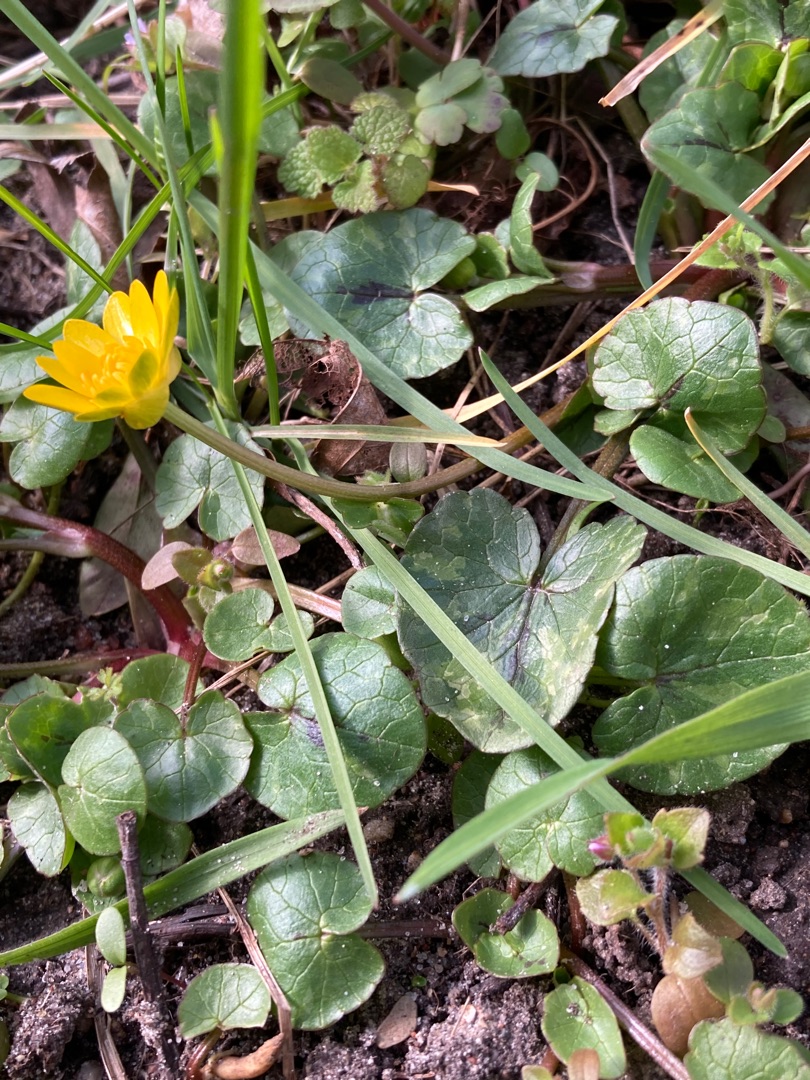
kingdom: Plantae
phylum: Tracheophyta
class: Magnoliopsida
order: Ranunculales
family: Ranunculaceae
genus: Ficaria
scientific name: Ficaria verna
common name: Vorterod
